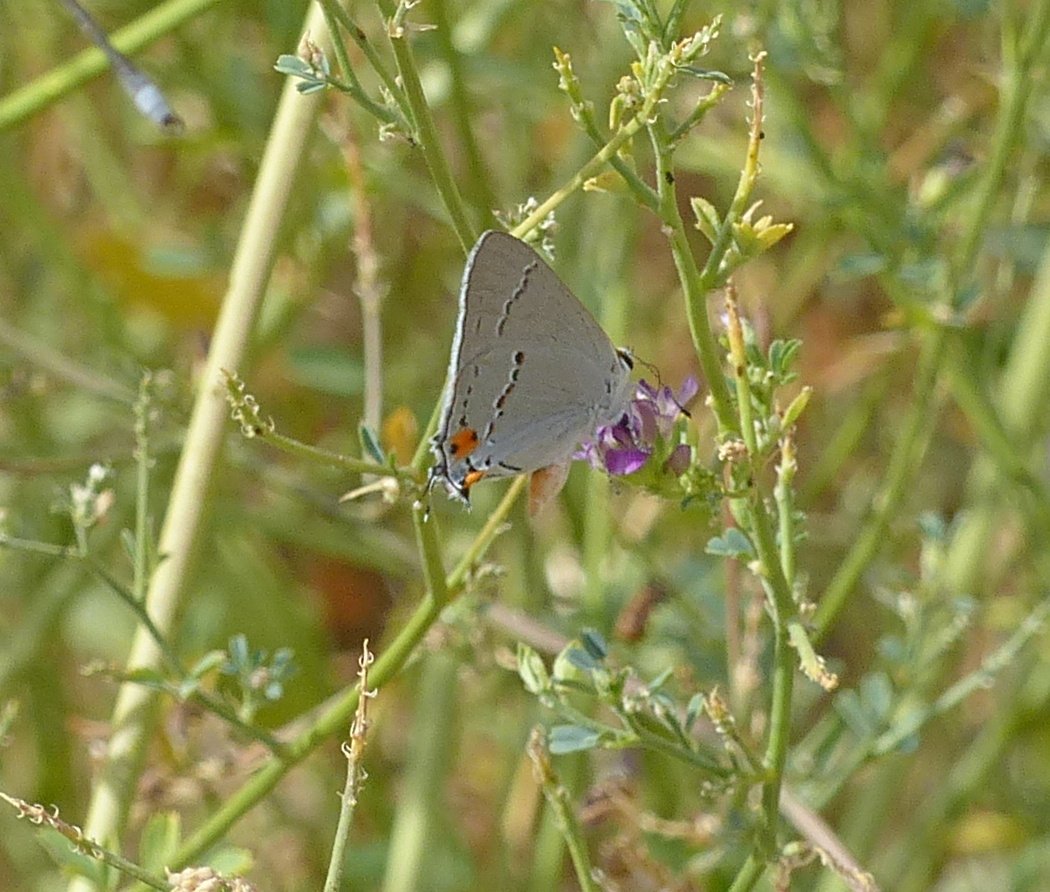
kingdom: Animalia
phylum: Arthropoda
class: Insecta
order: Lepidoptera
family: Lycaenidae
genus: Strymon
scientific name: Strymon melinus
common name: Gray Hairstreak
